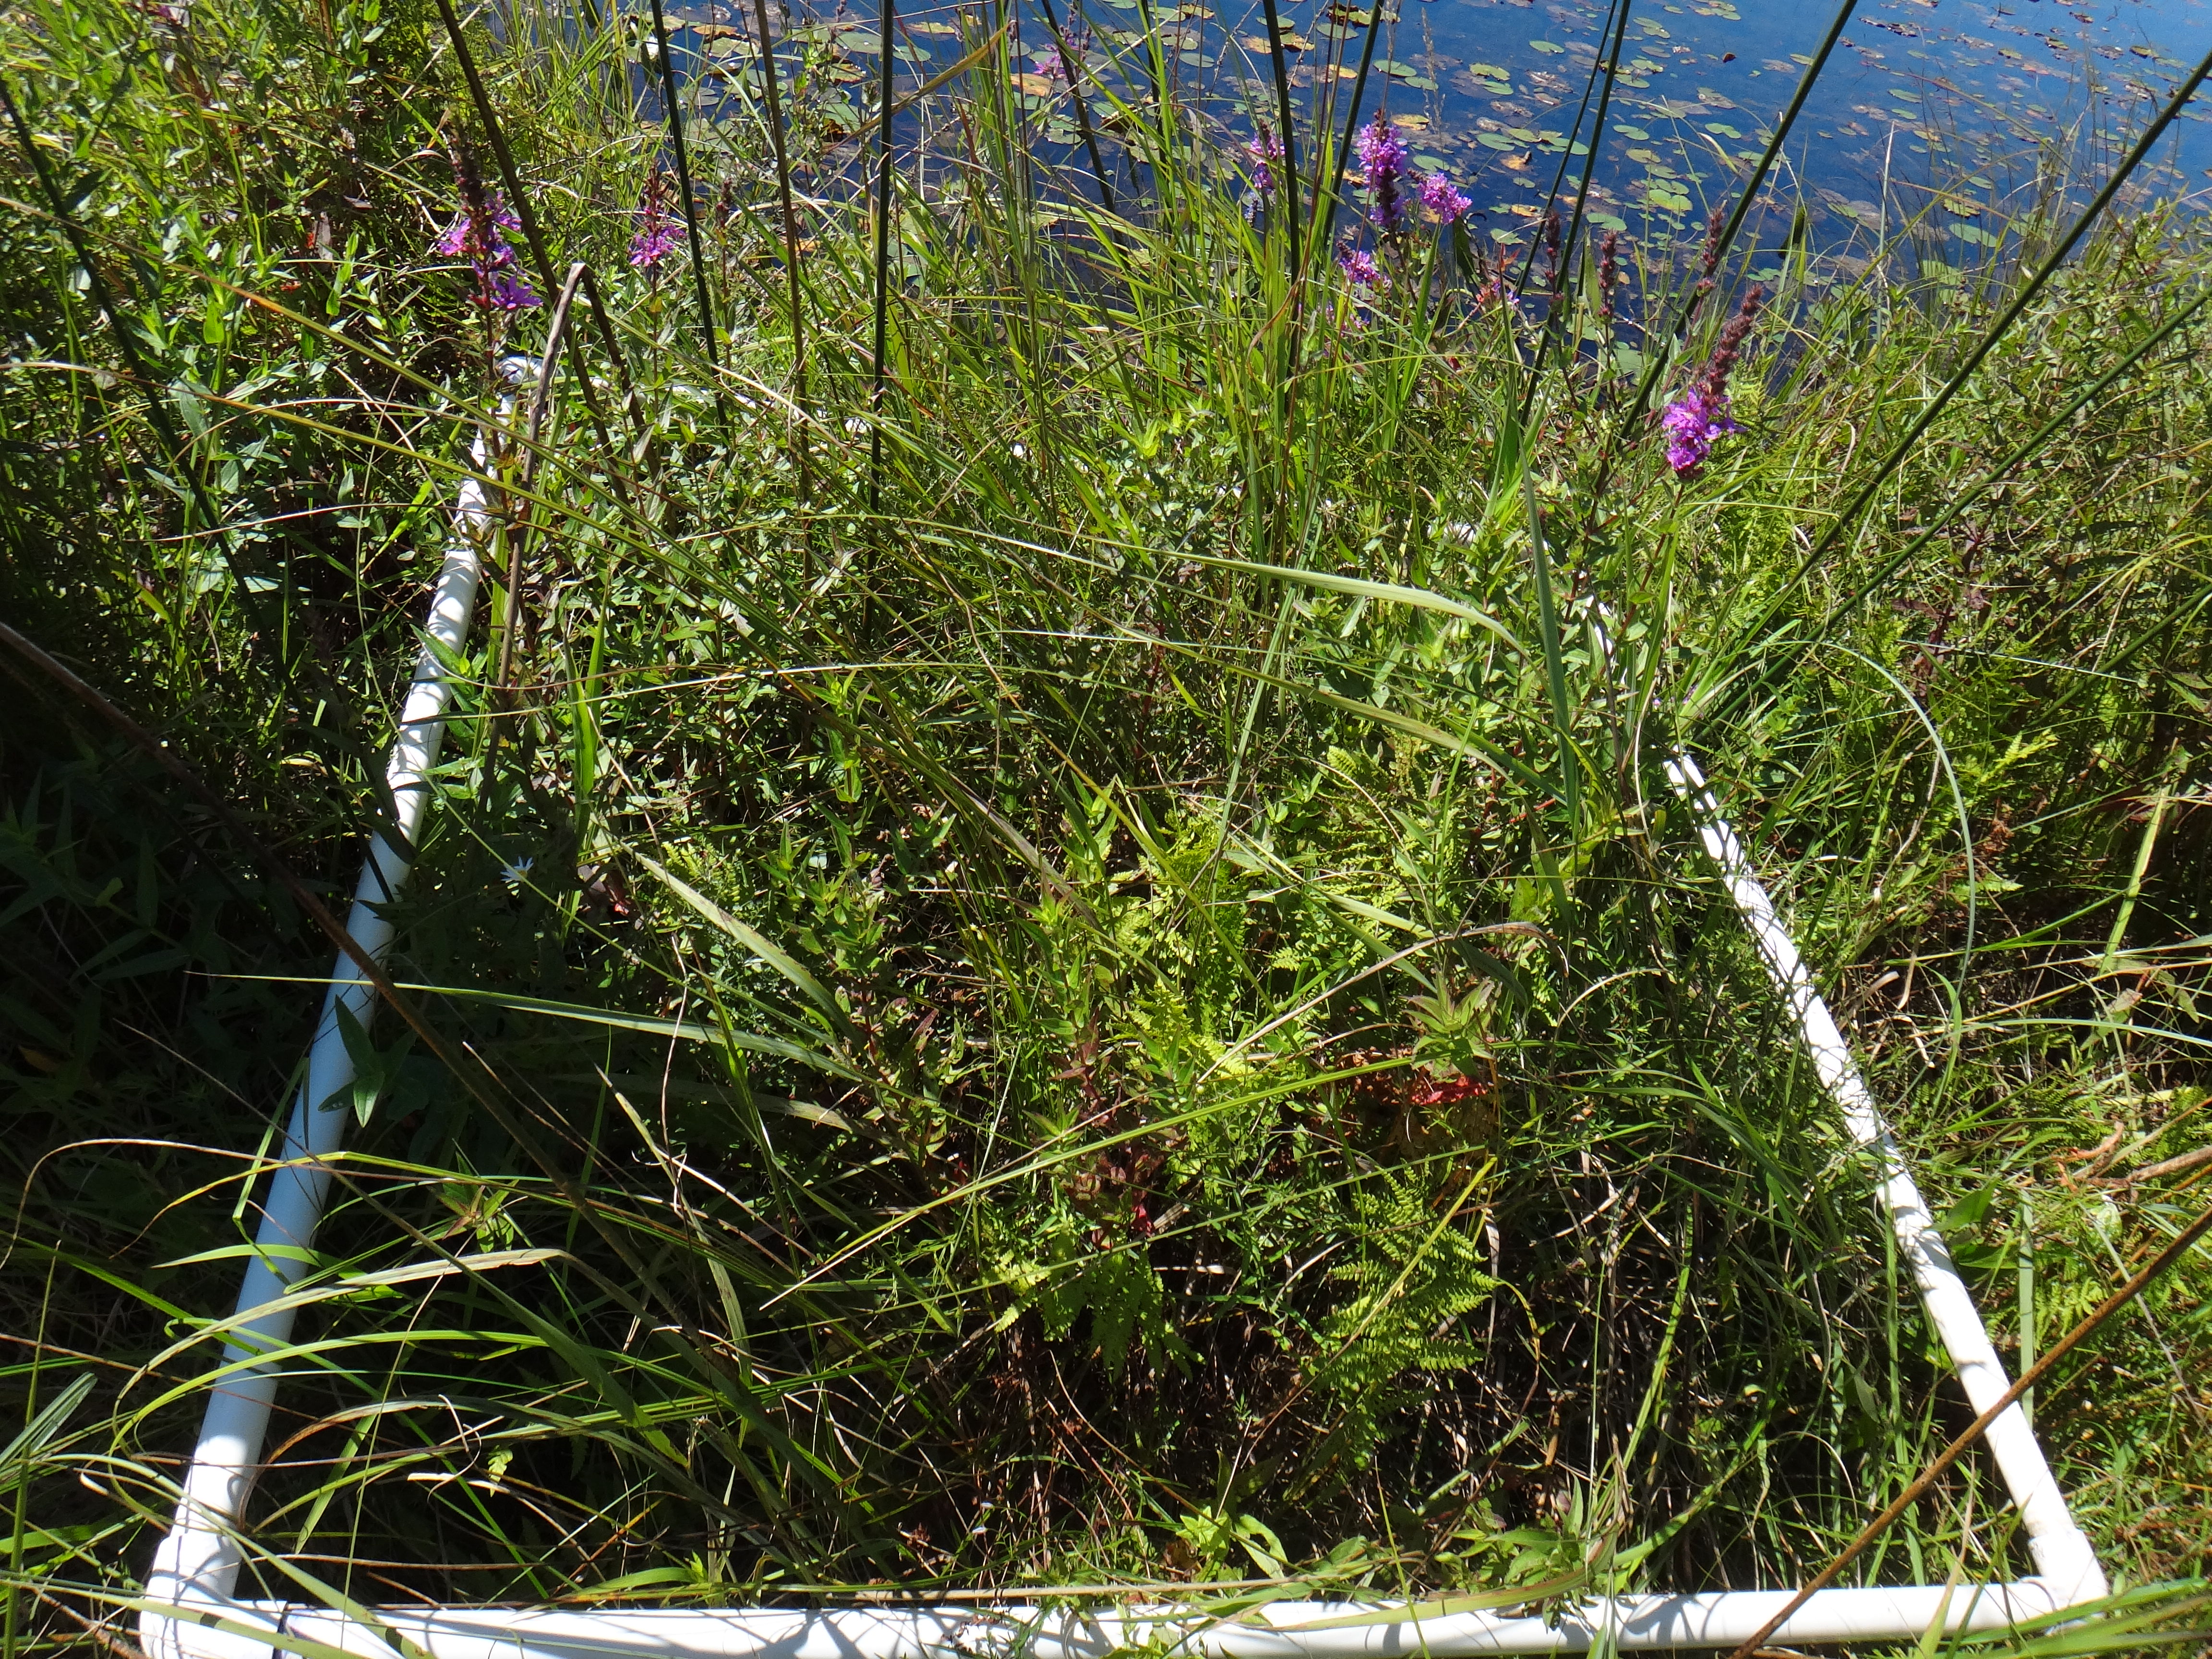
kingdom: Plantae
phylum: Tracheophyta
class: Magnoliopsida
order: Ericales
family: Balsaminaceae
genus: Impatiens
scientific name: Impatiens capensis
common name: Orange balsam
